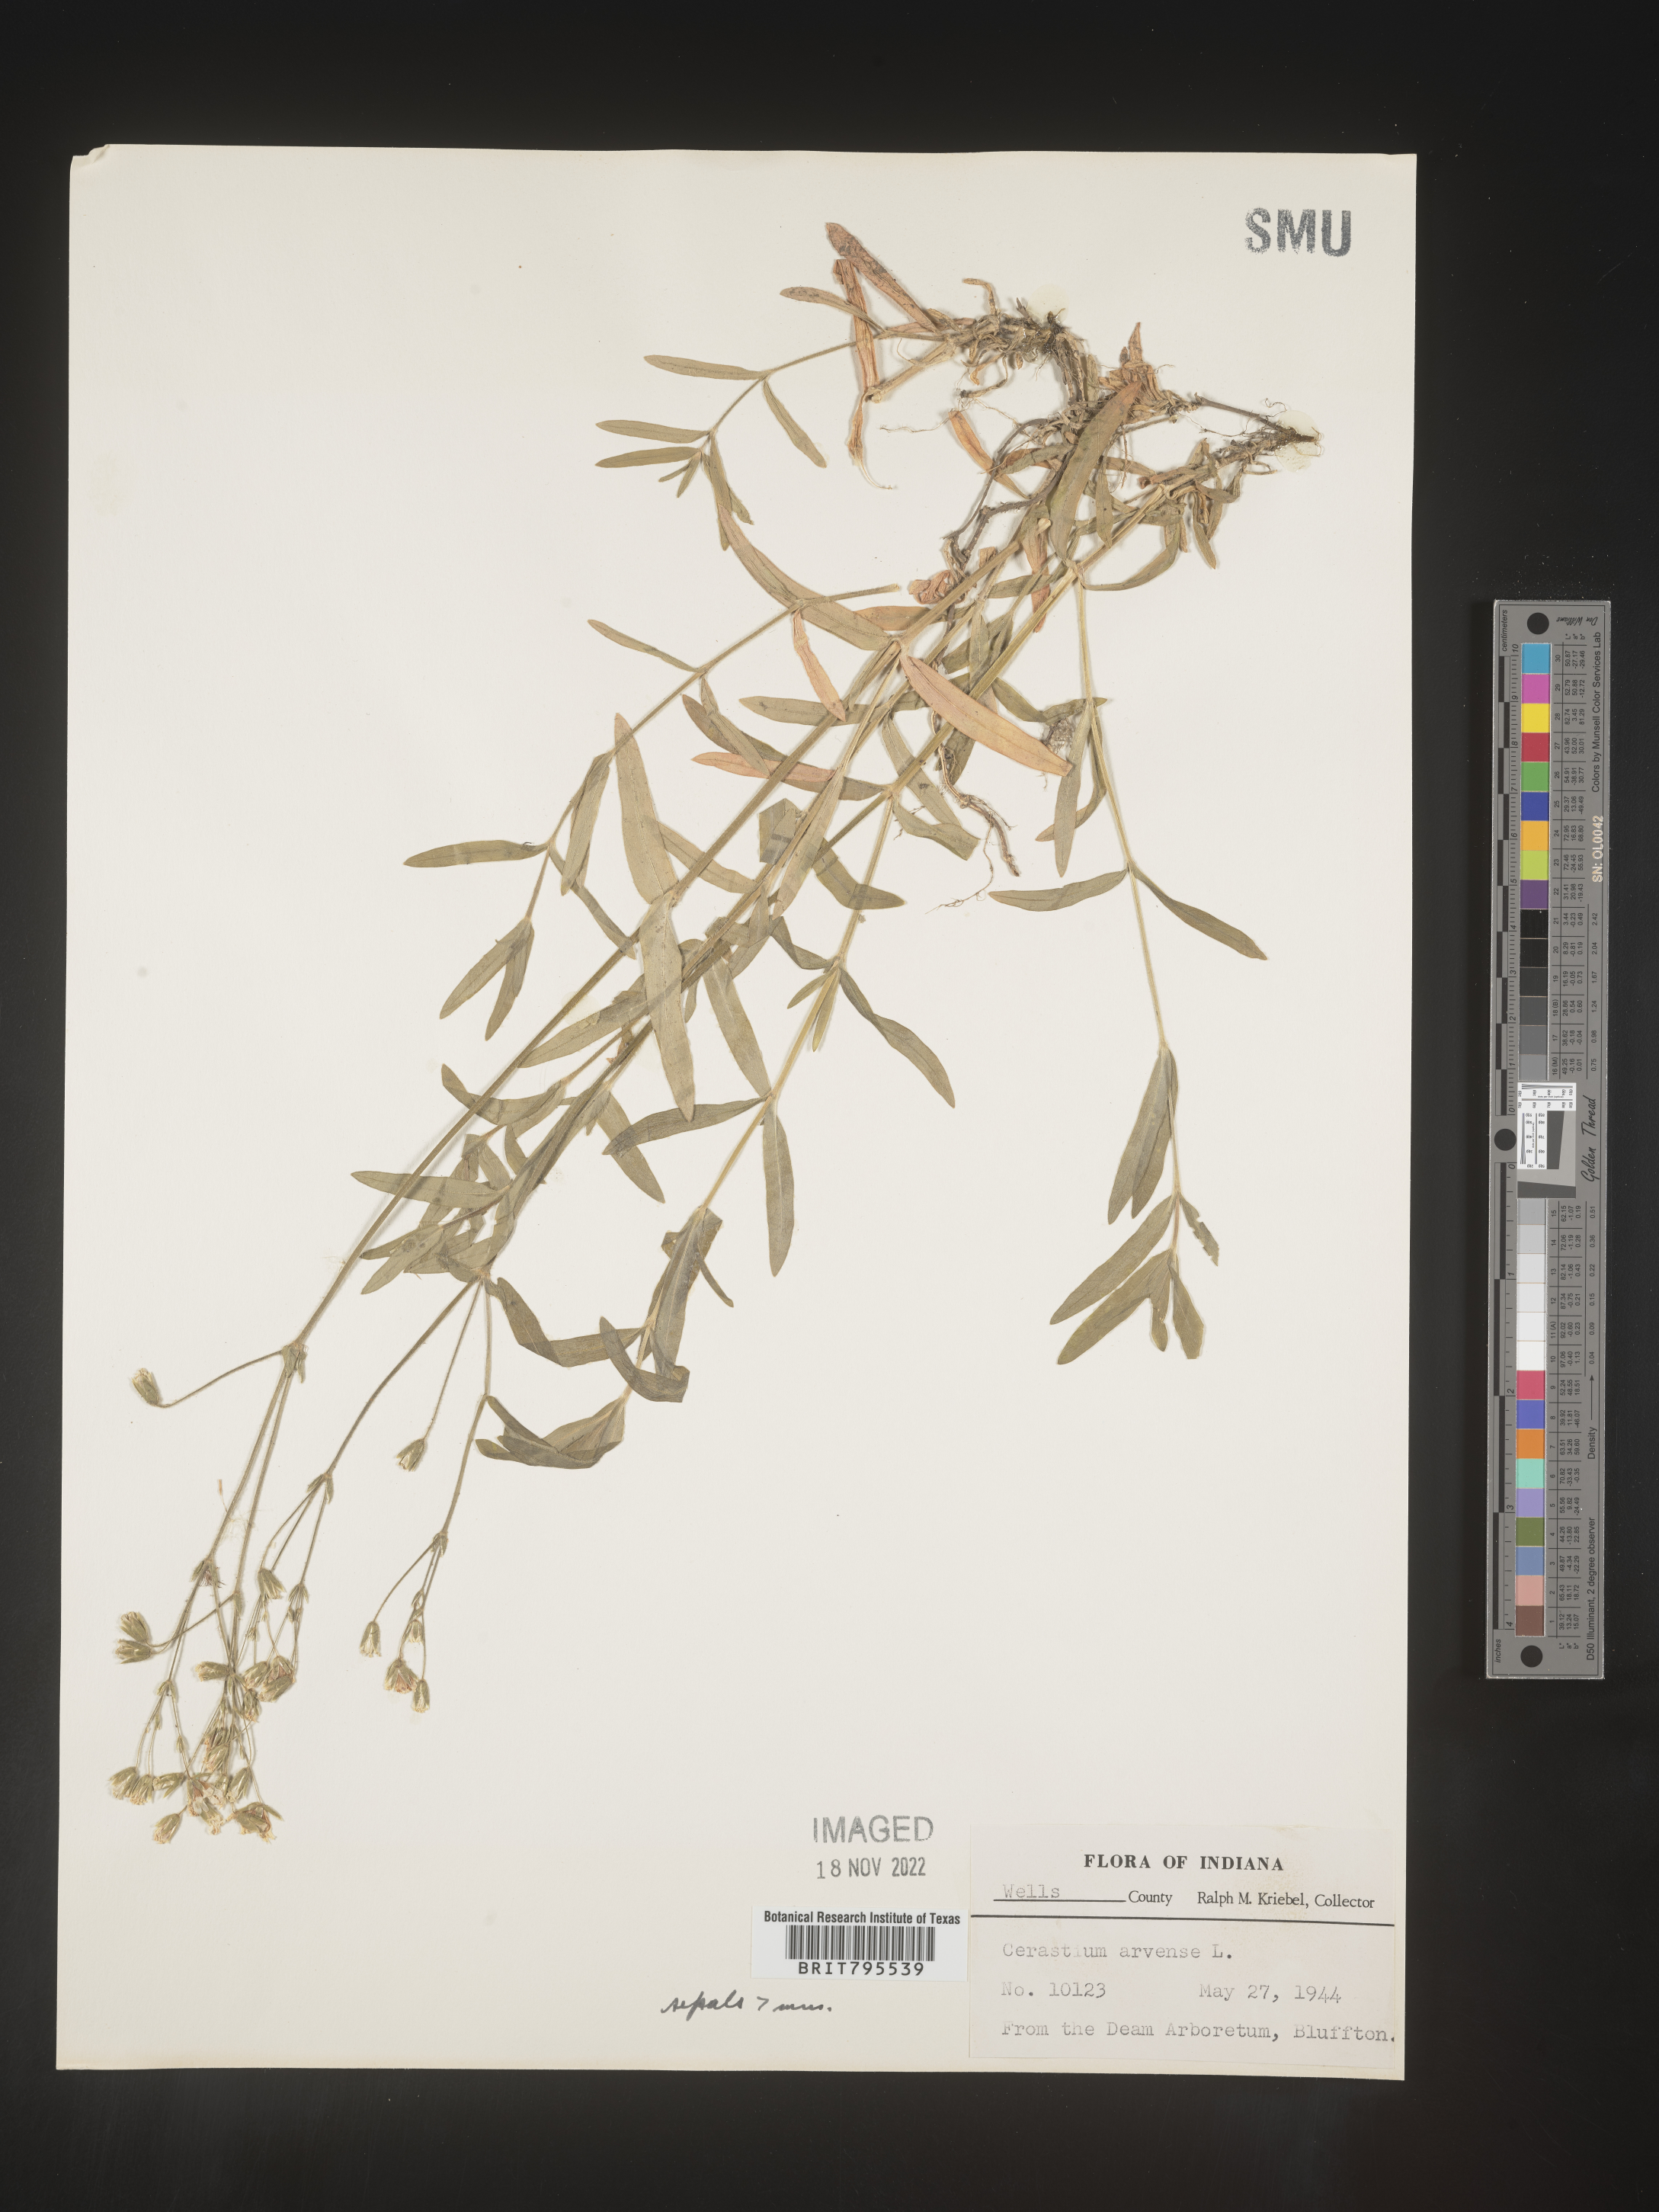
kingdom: Plantae
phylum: Tracheophyta
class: Magnoliopsida
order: Caryophyllales
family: Caryophyllaceae
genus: Cerastium
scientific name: Cerastium
